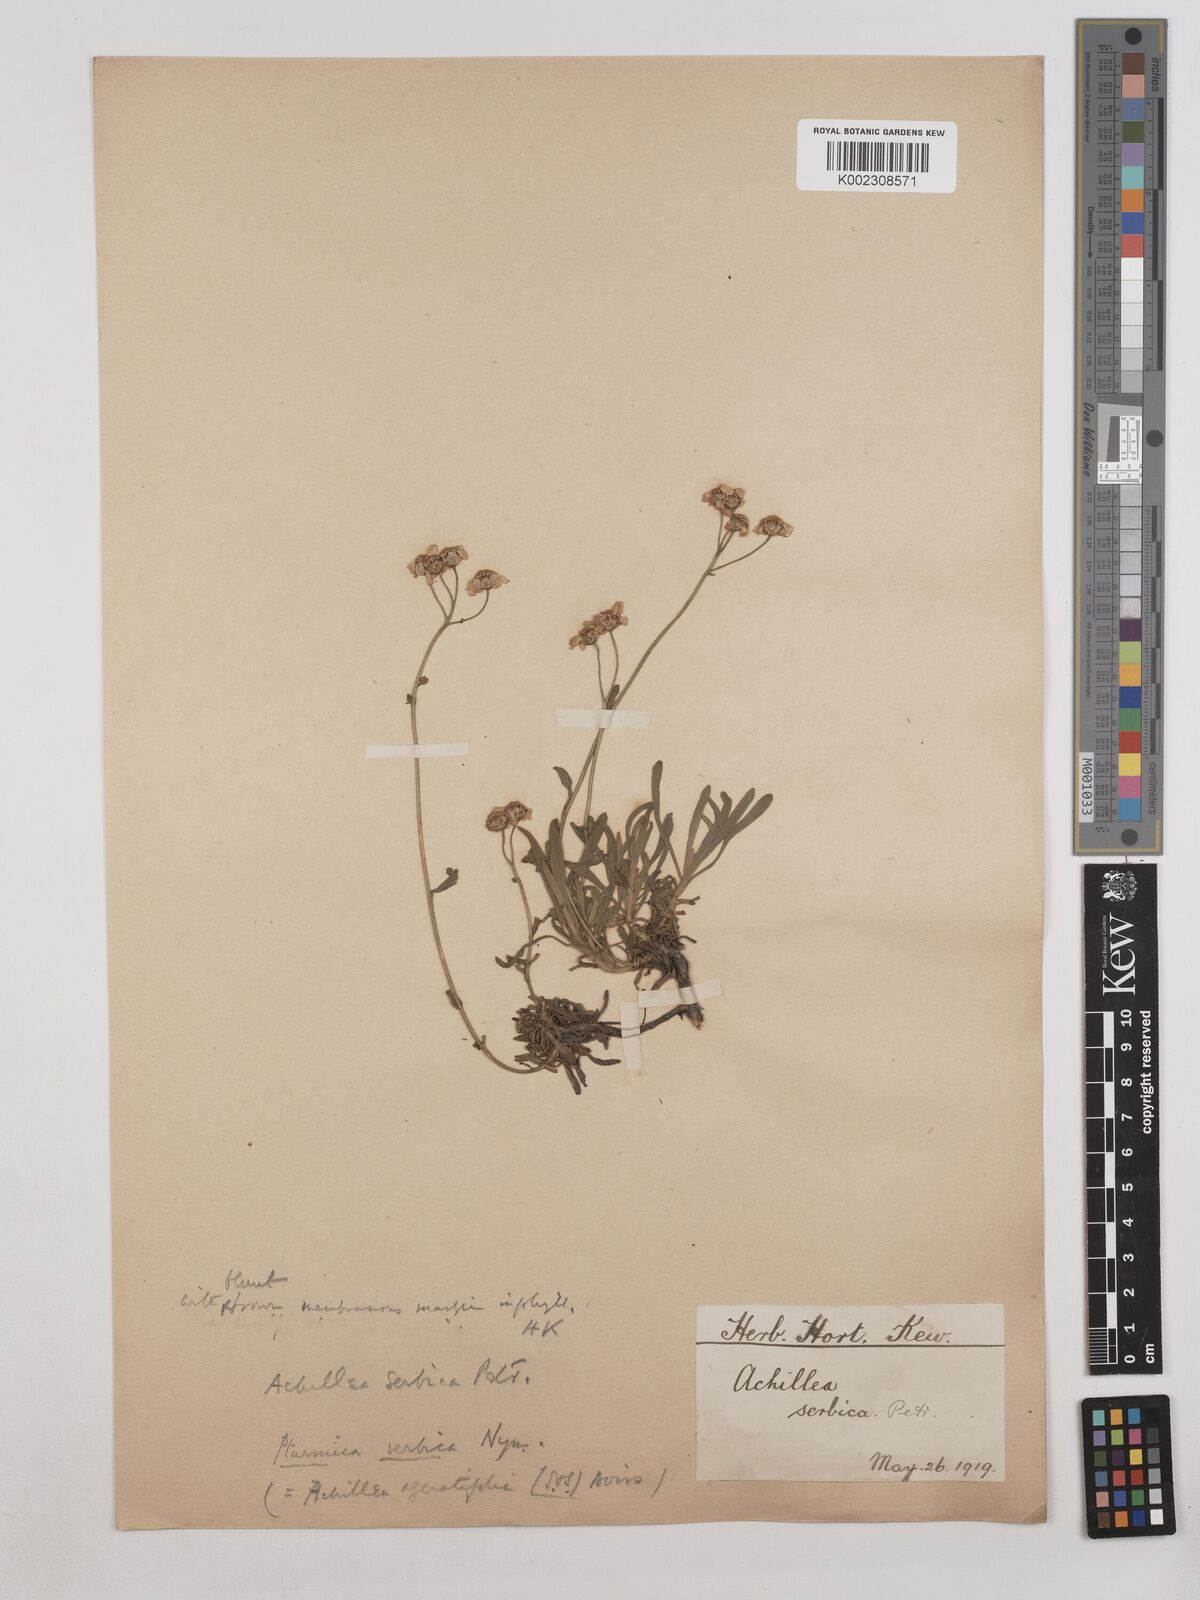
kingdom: Plantae
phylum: Tracheophyta
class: Magnoliopsida
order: Asterales
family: Asteraceae
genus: Achillea
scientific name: Achillea ageratifolia
